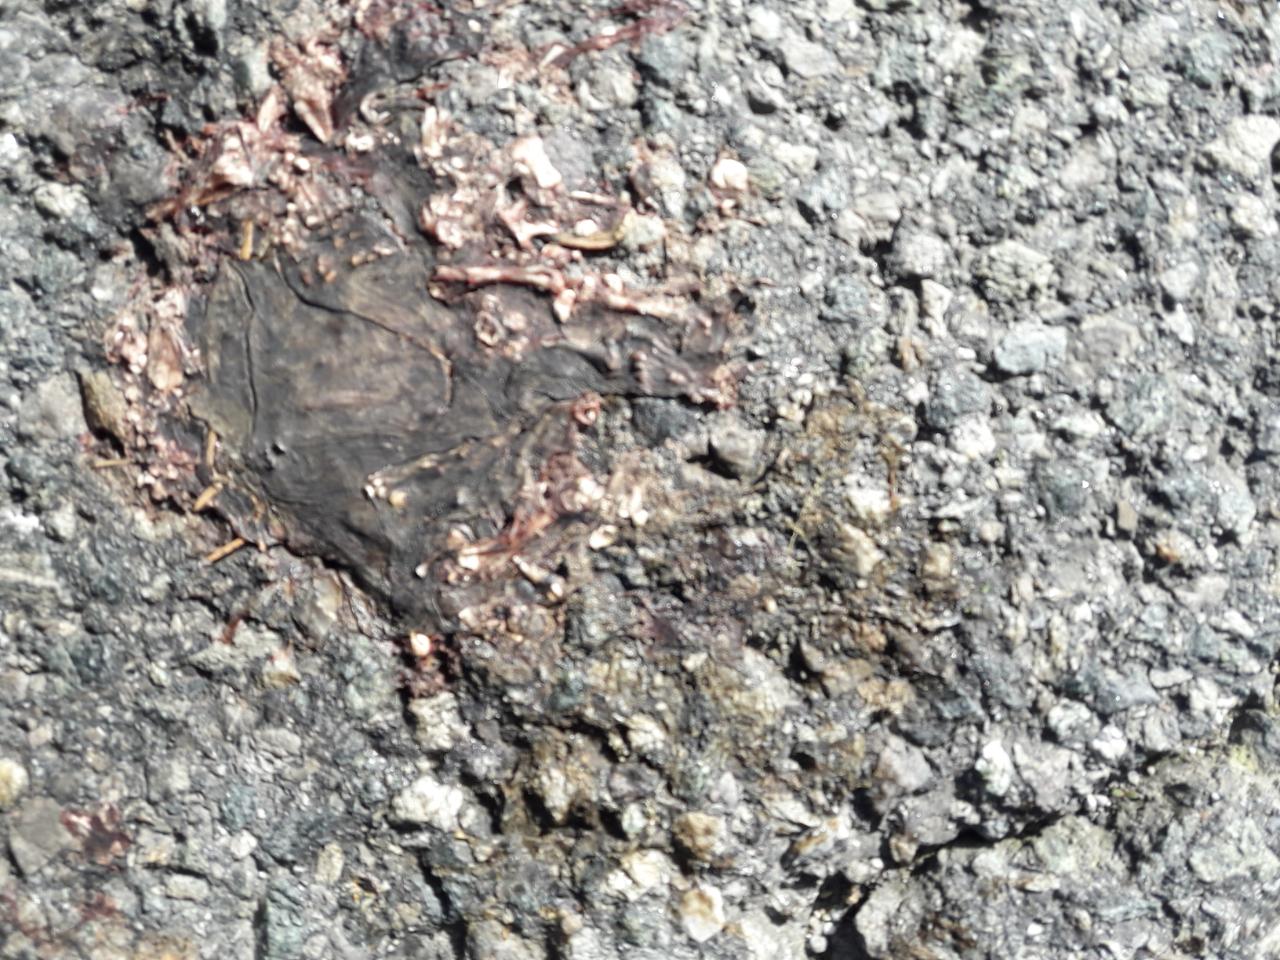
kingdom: Animalia
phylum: Chordata
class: Amphibia
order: Anura
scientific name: Anura
